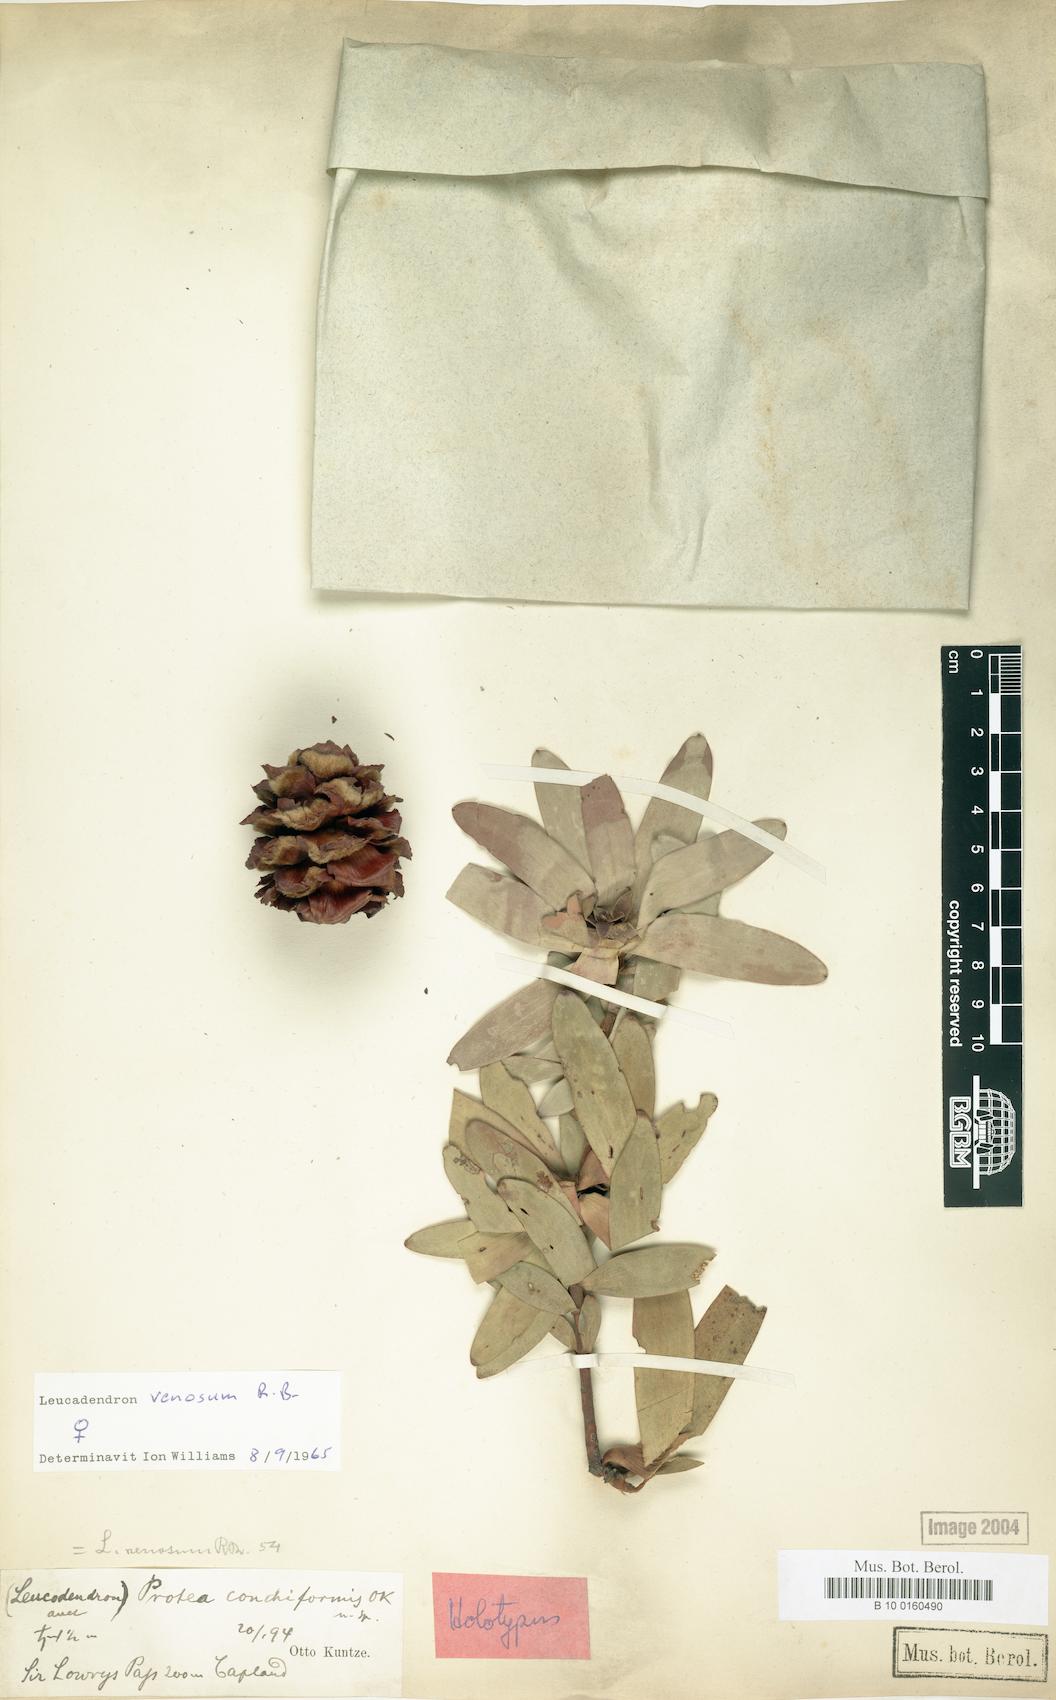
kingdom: Plantae
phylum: Tracheophyta
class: Magnoliopsida
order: Proteales
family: Proteaceae
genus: Leucadendron
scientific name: Leucadendron sessile
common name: Western sunbush
